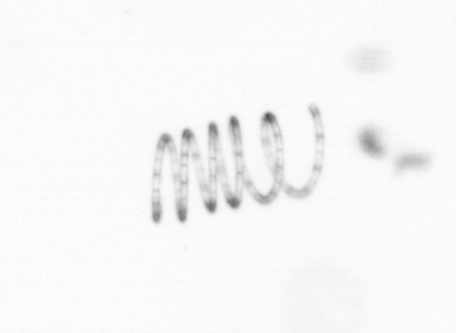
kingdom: Chromista
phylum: Ochrophyta
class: Bacillariophyceae
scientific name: Bacillariophyceae
